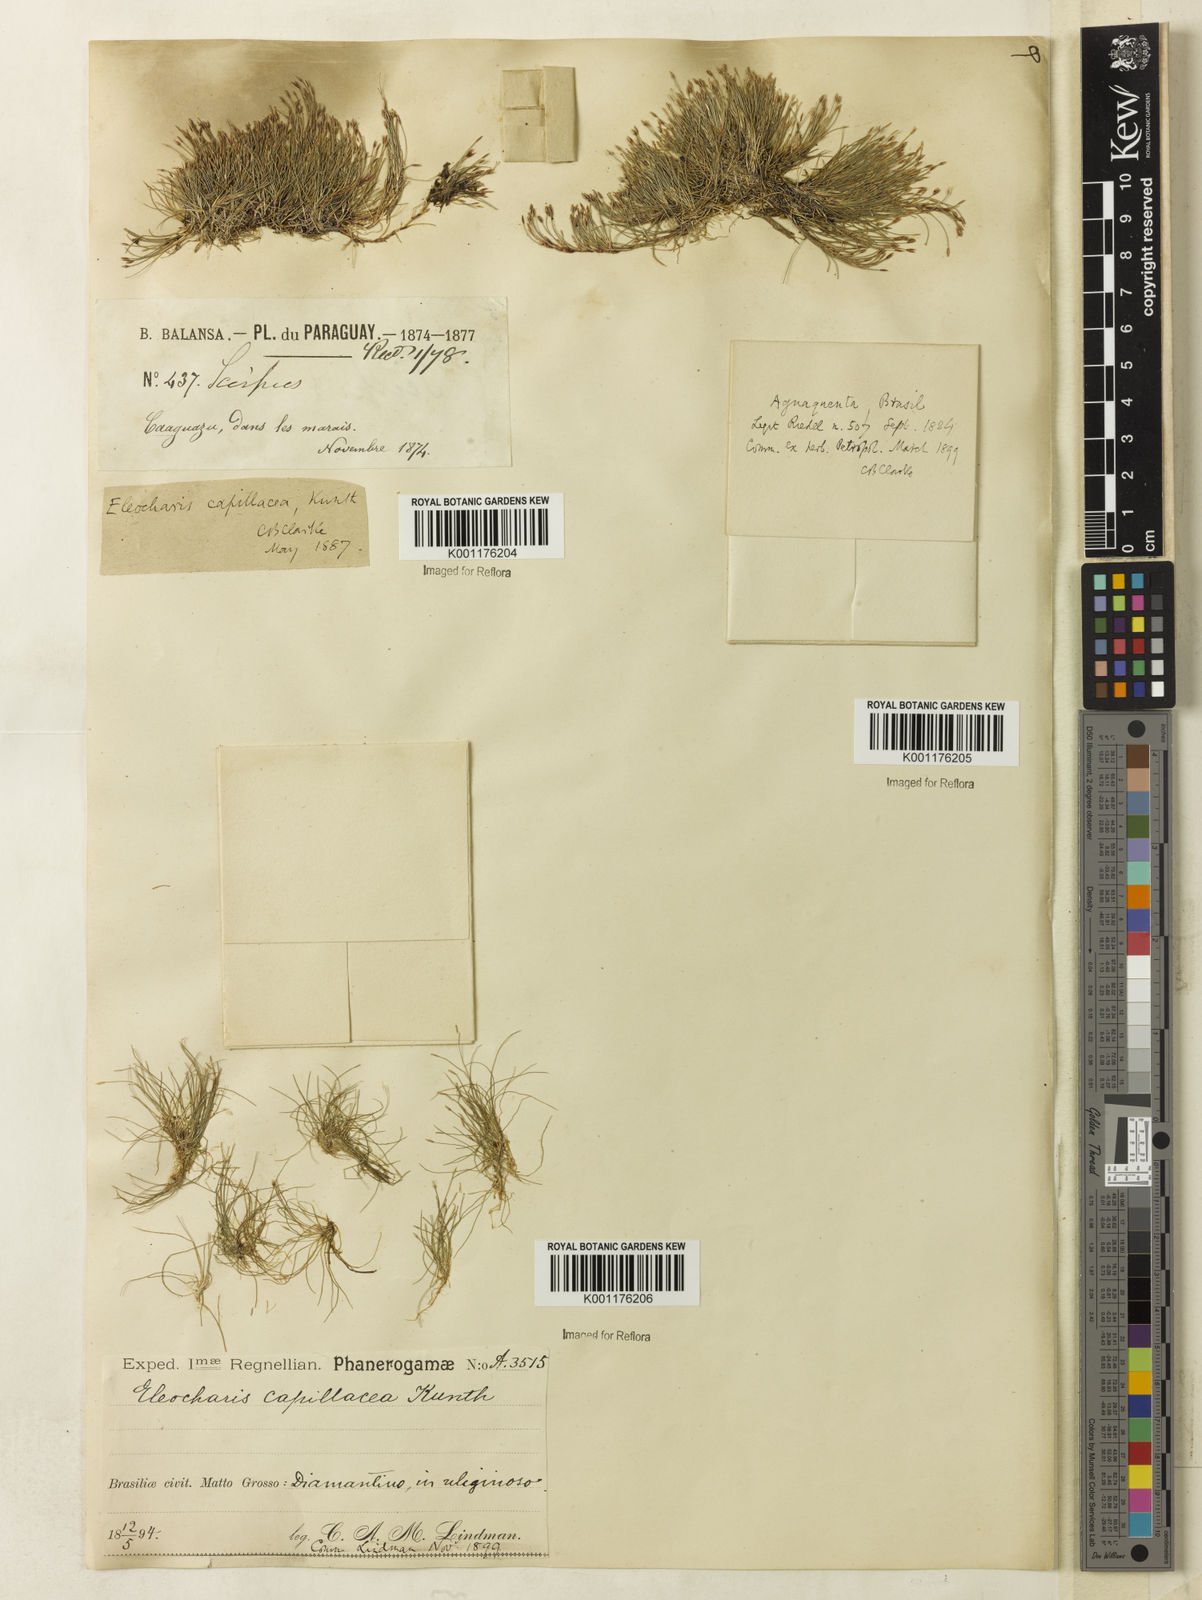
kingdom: Plantae
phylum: Tracheophyta
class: Liliopsida
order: Poales
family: Cyperaceae
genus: Eleocharis
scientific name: Eleocharis capillacea
